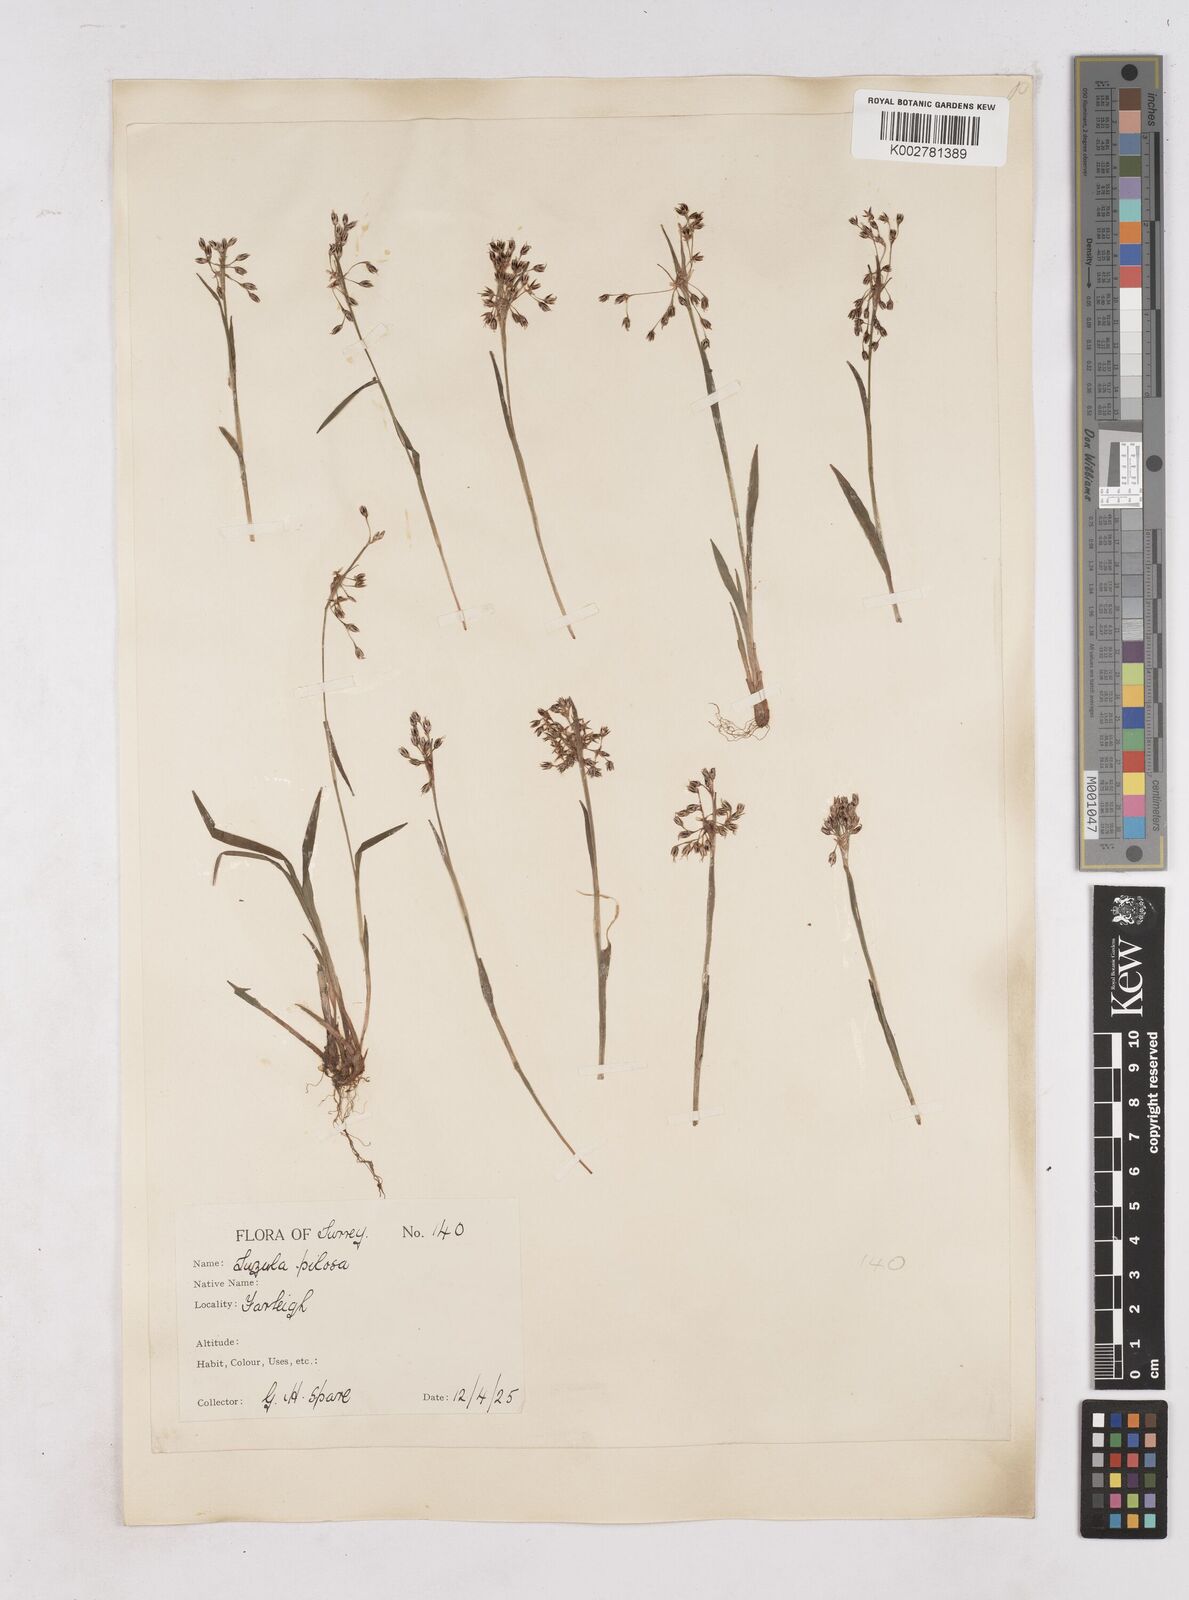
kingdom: Plantae
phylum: Tracheophyta
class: Liliopsida
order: Poales
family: Juncaceae
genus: Luzula
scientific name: Luzula pilosa
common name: Hairy wood-rush
